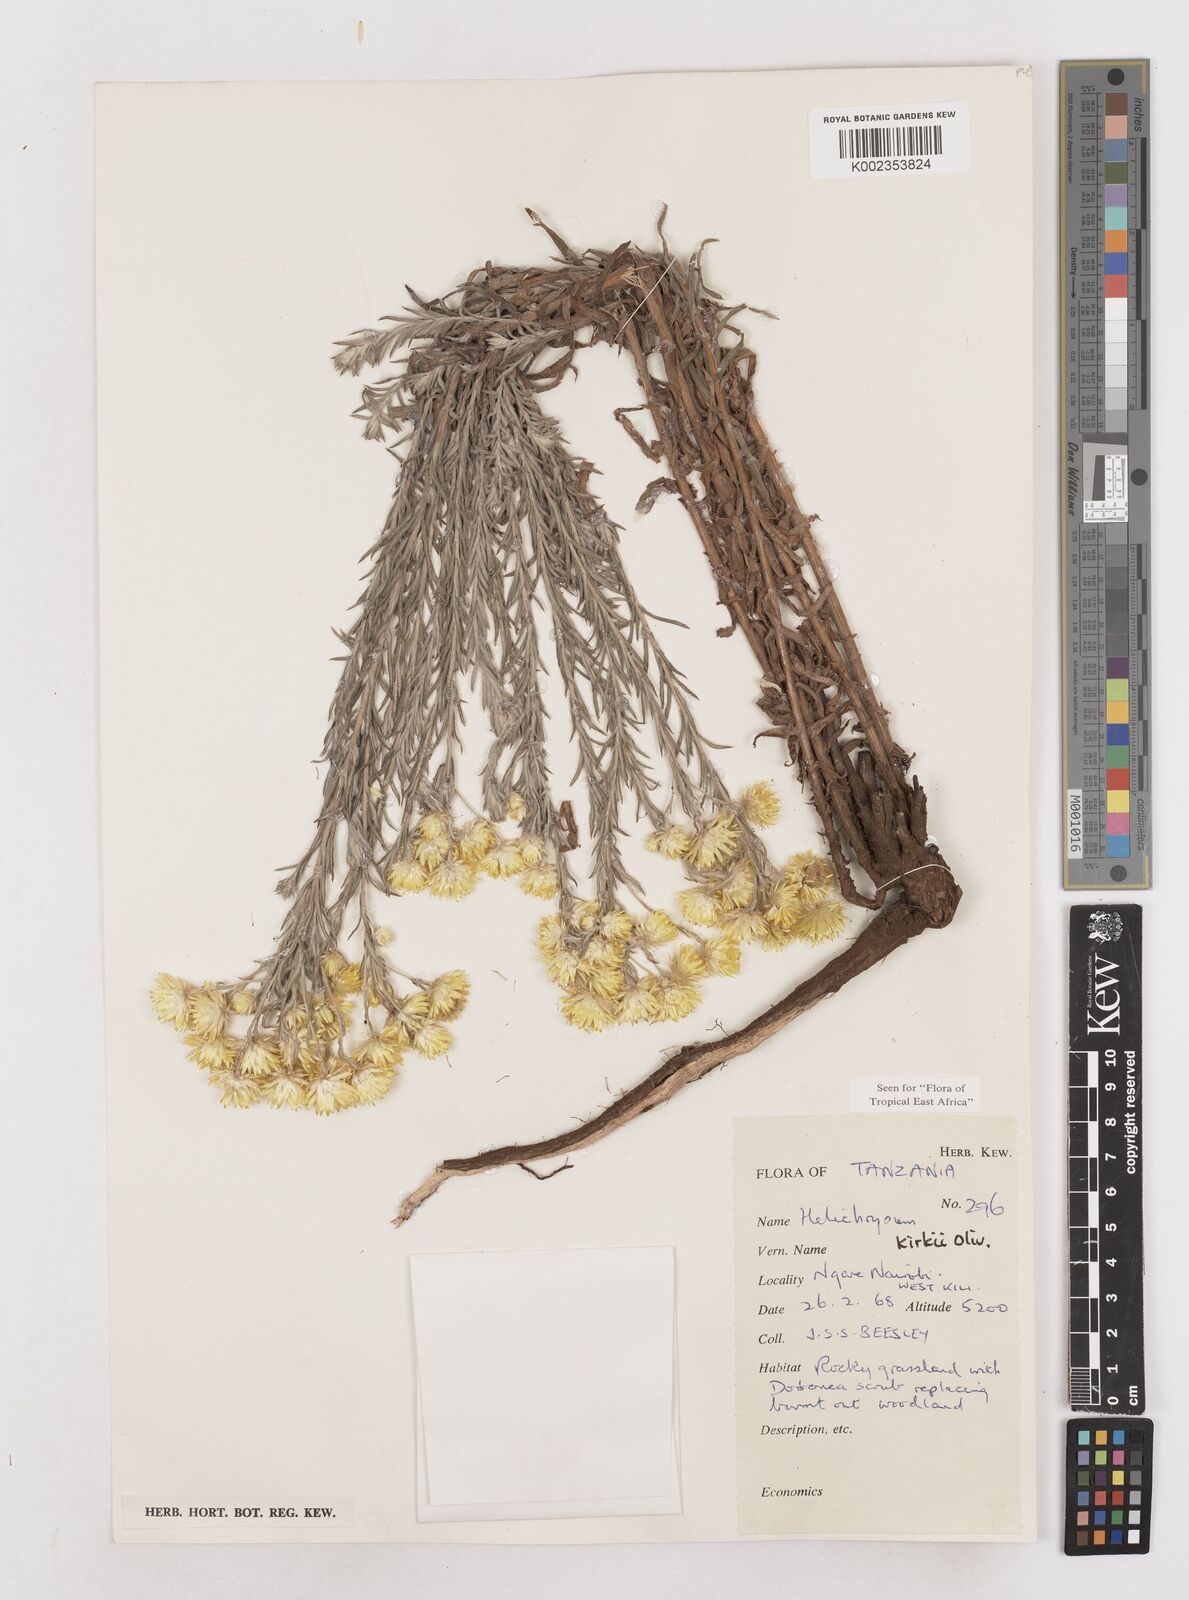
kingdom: Plantae
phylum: Tracheophyta
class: Magnoliopsida
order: Asterales
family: Asteraceae
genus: Helichrysum
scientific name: Helichrysum kirkii
